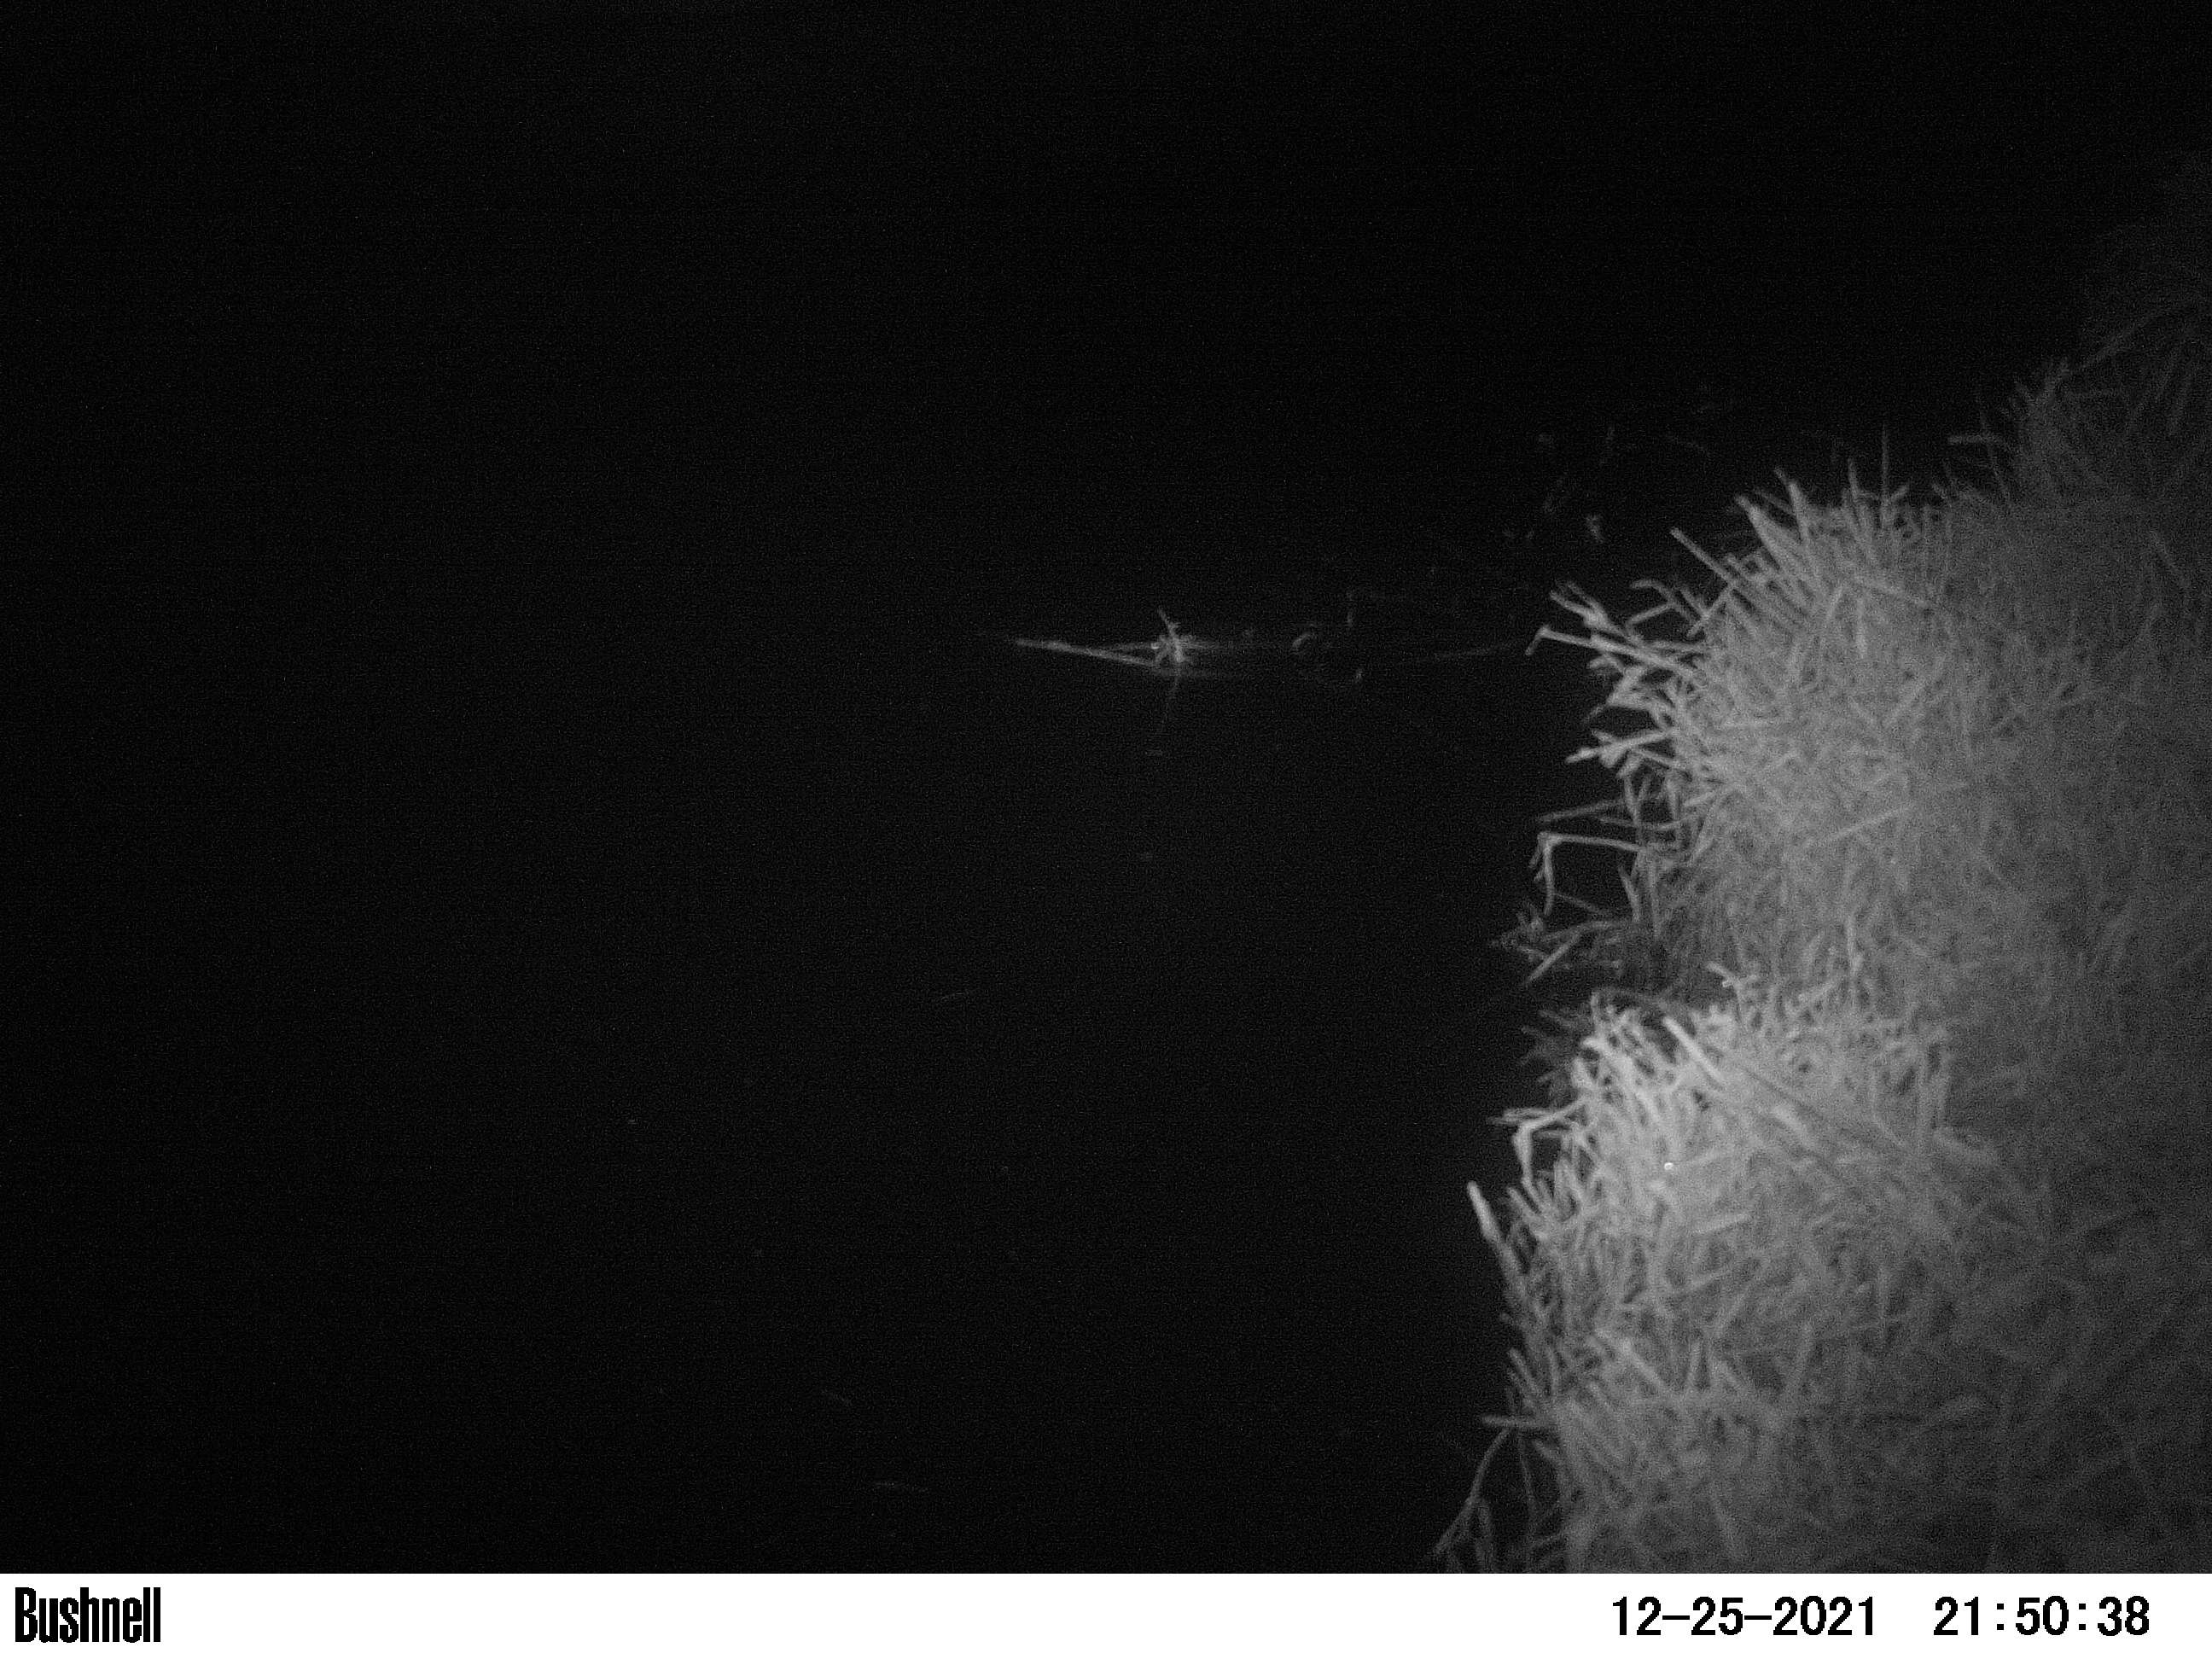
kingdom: Animalia
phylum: Chordata
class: Aves
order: Anseriformes
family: Anatidae
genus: Anas
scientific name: Anas
